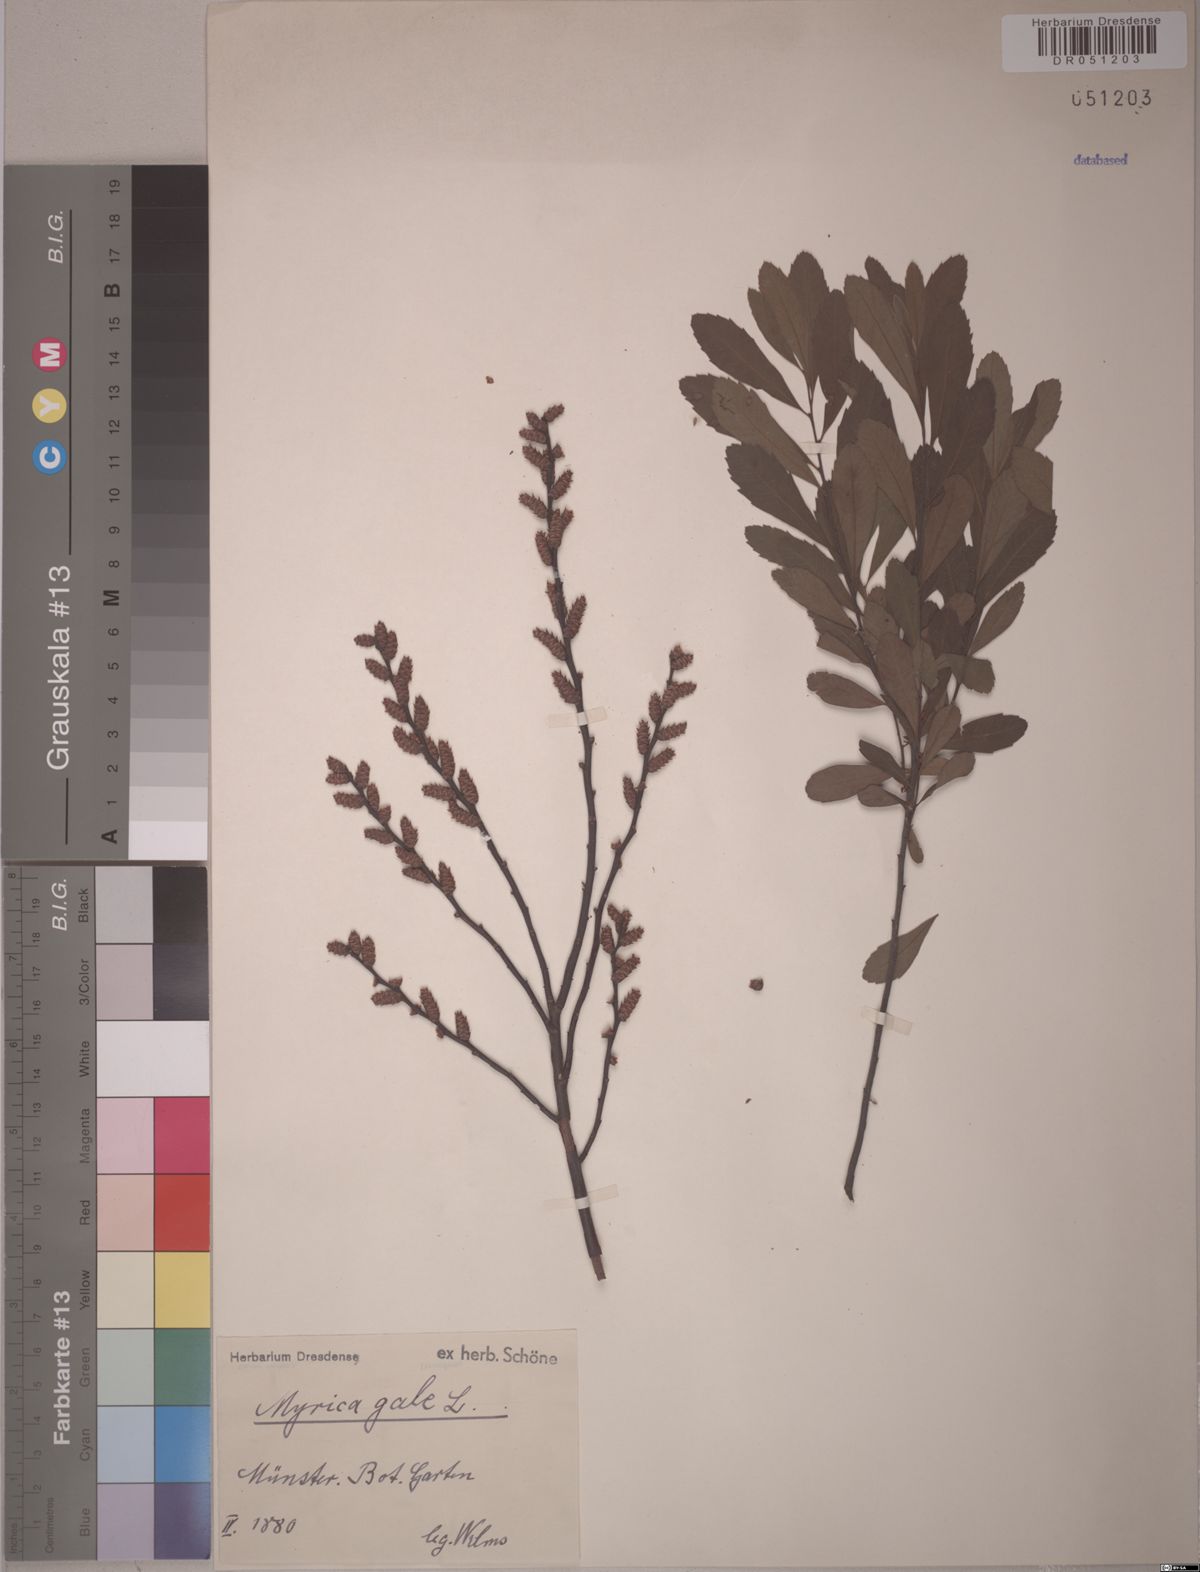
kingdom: Plantae
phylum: Tracheophyta
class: Magnoliopsida
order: Fagales
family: Myricaceae
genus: Myrica
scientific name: Myrica gale
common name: Sweet gale
